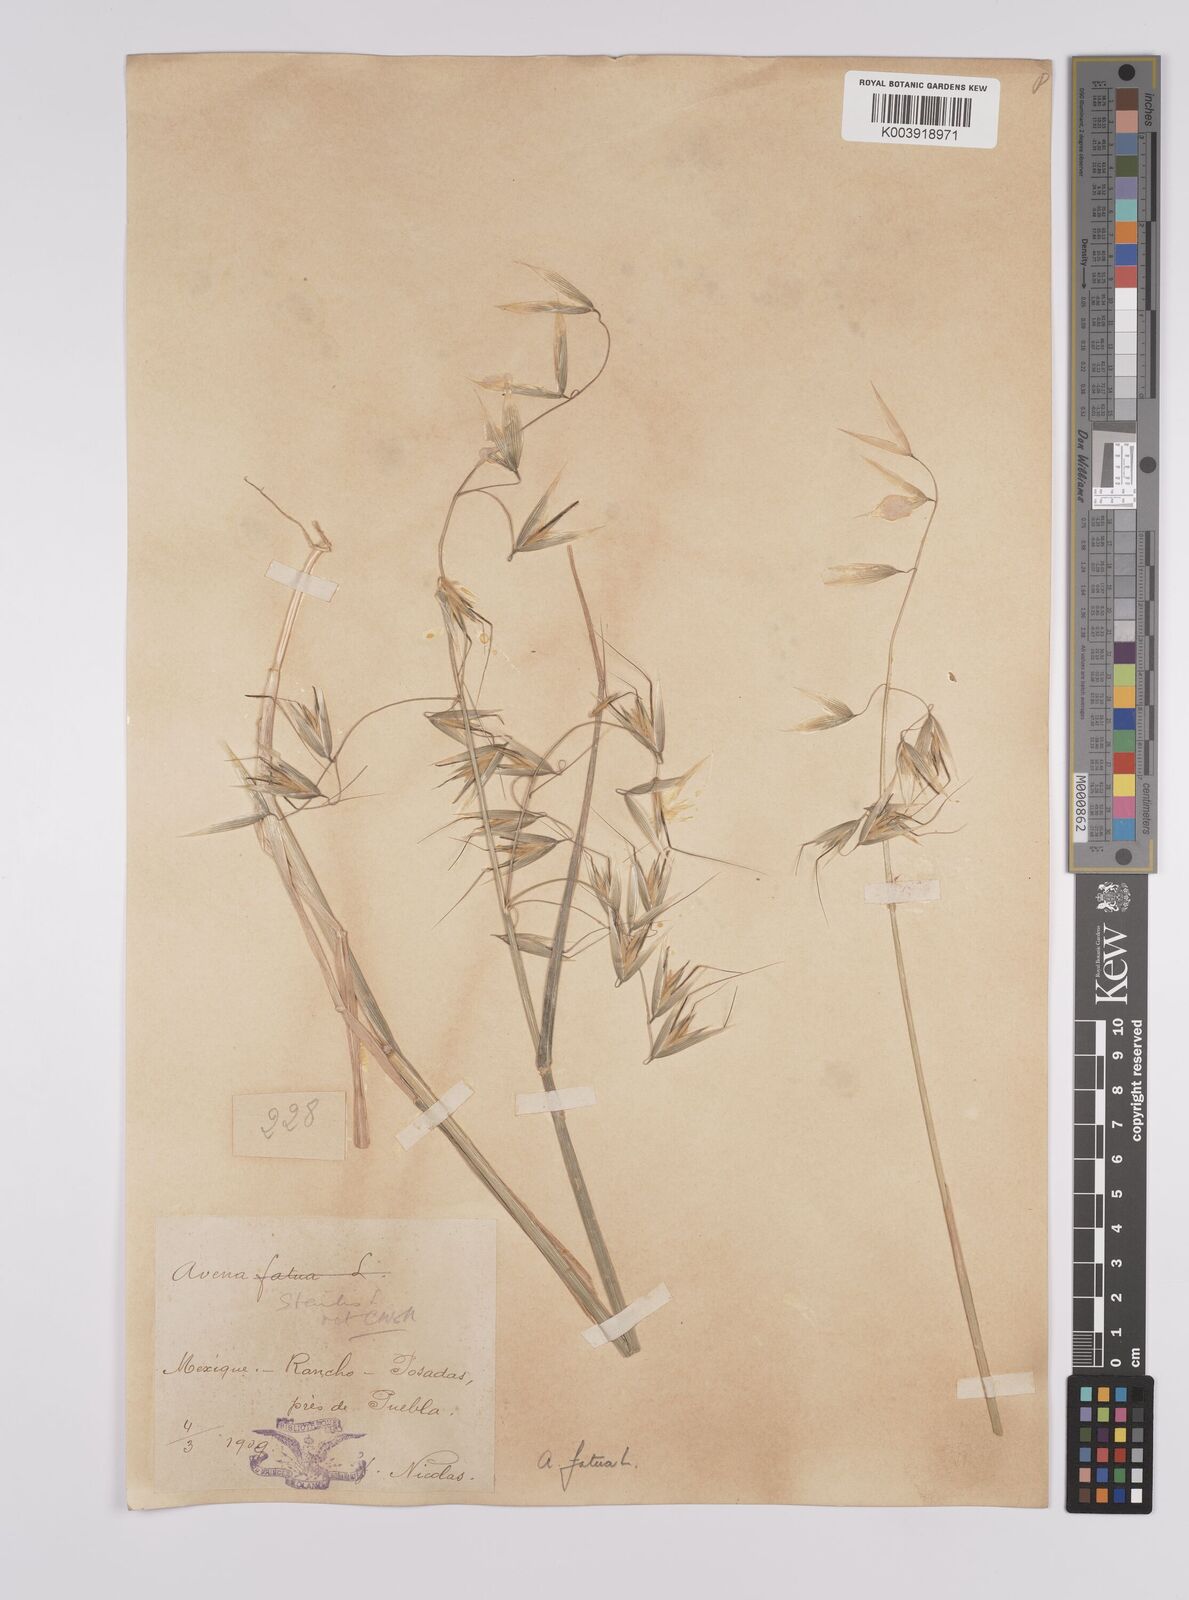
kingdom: Plantae
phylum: Tracheophyta
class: Liliopsida
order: Poales
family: Poaceae
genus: Avena
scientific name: Avena fatua
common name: Wild oat
